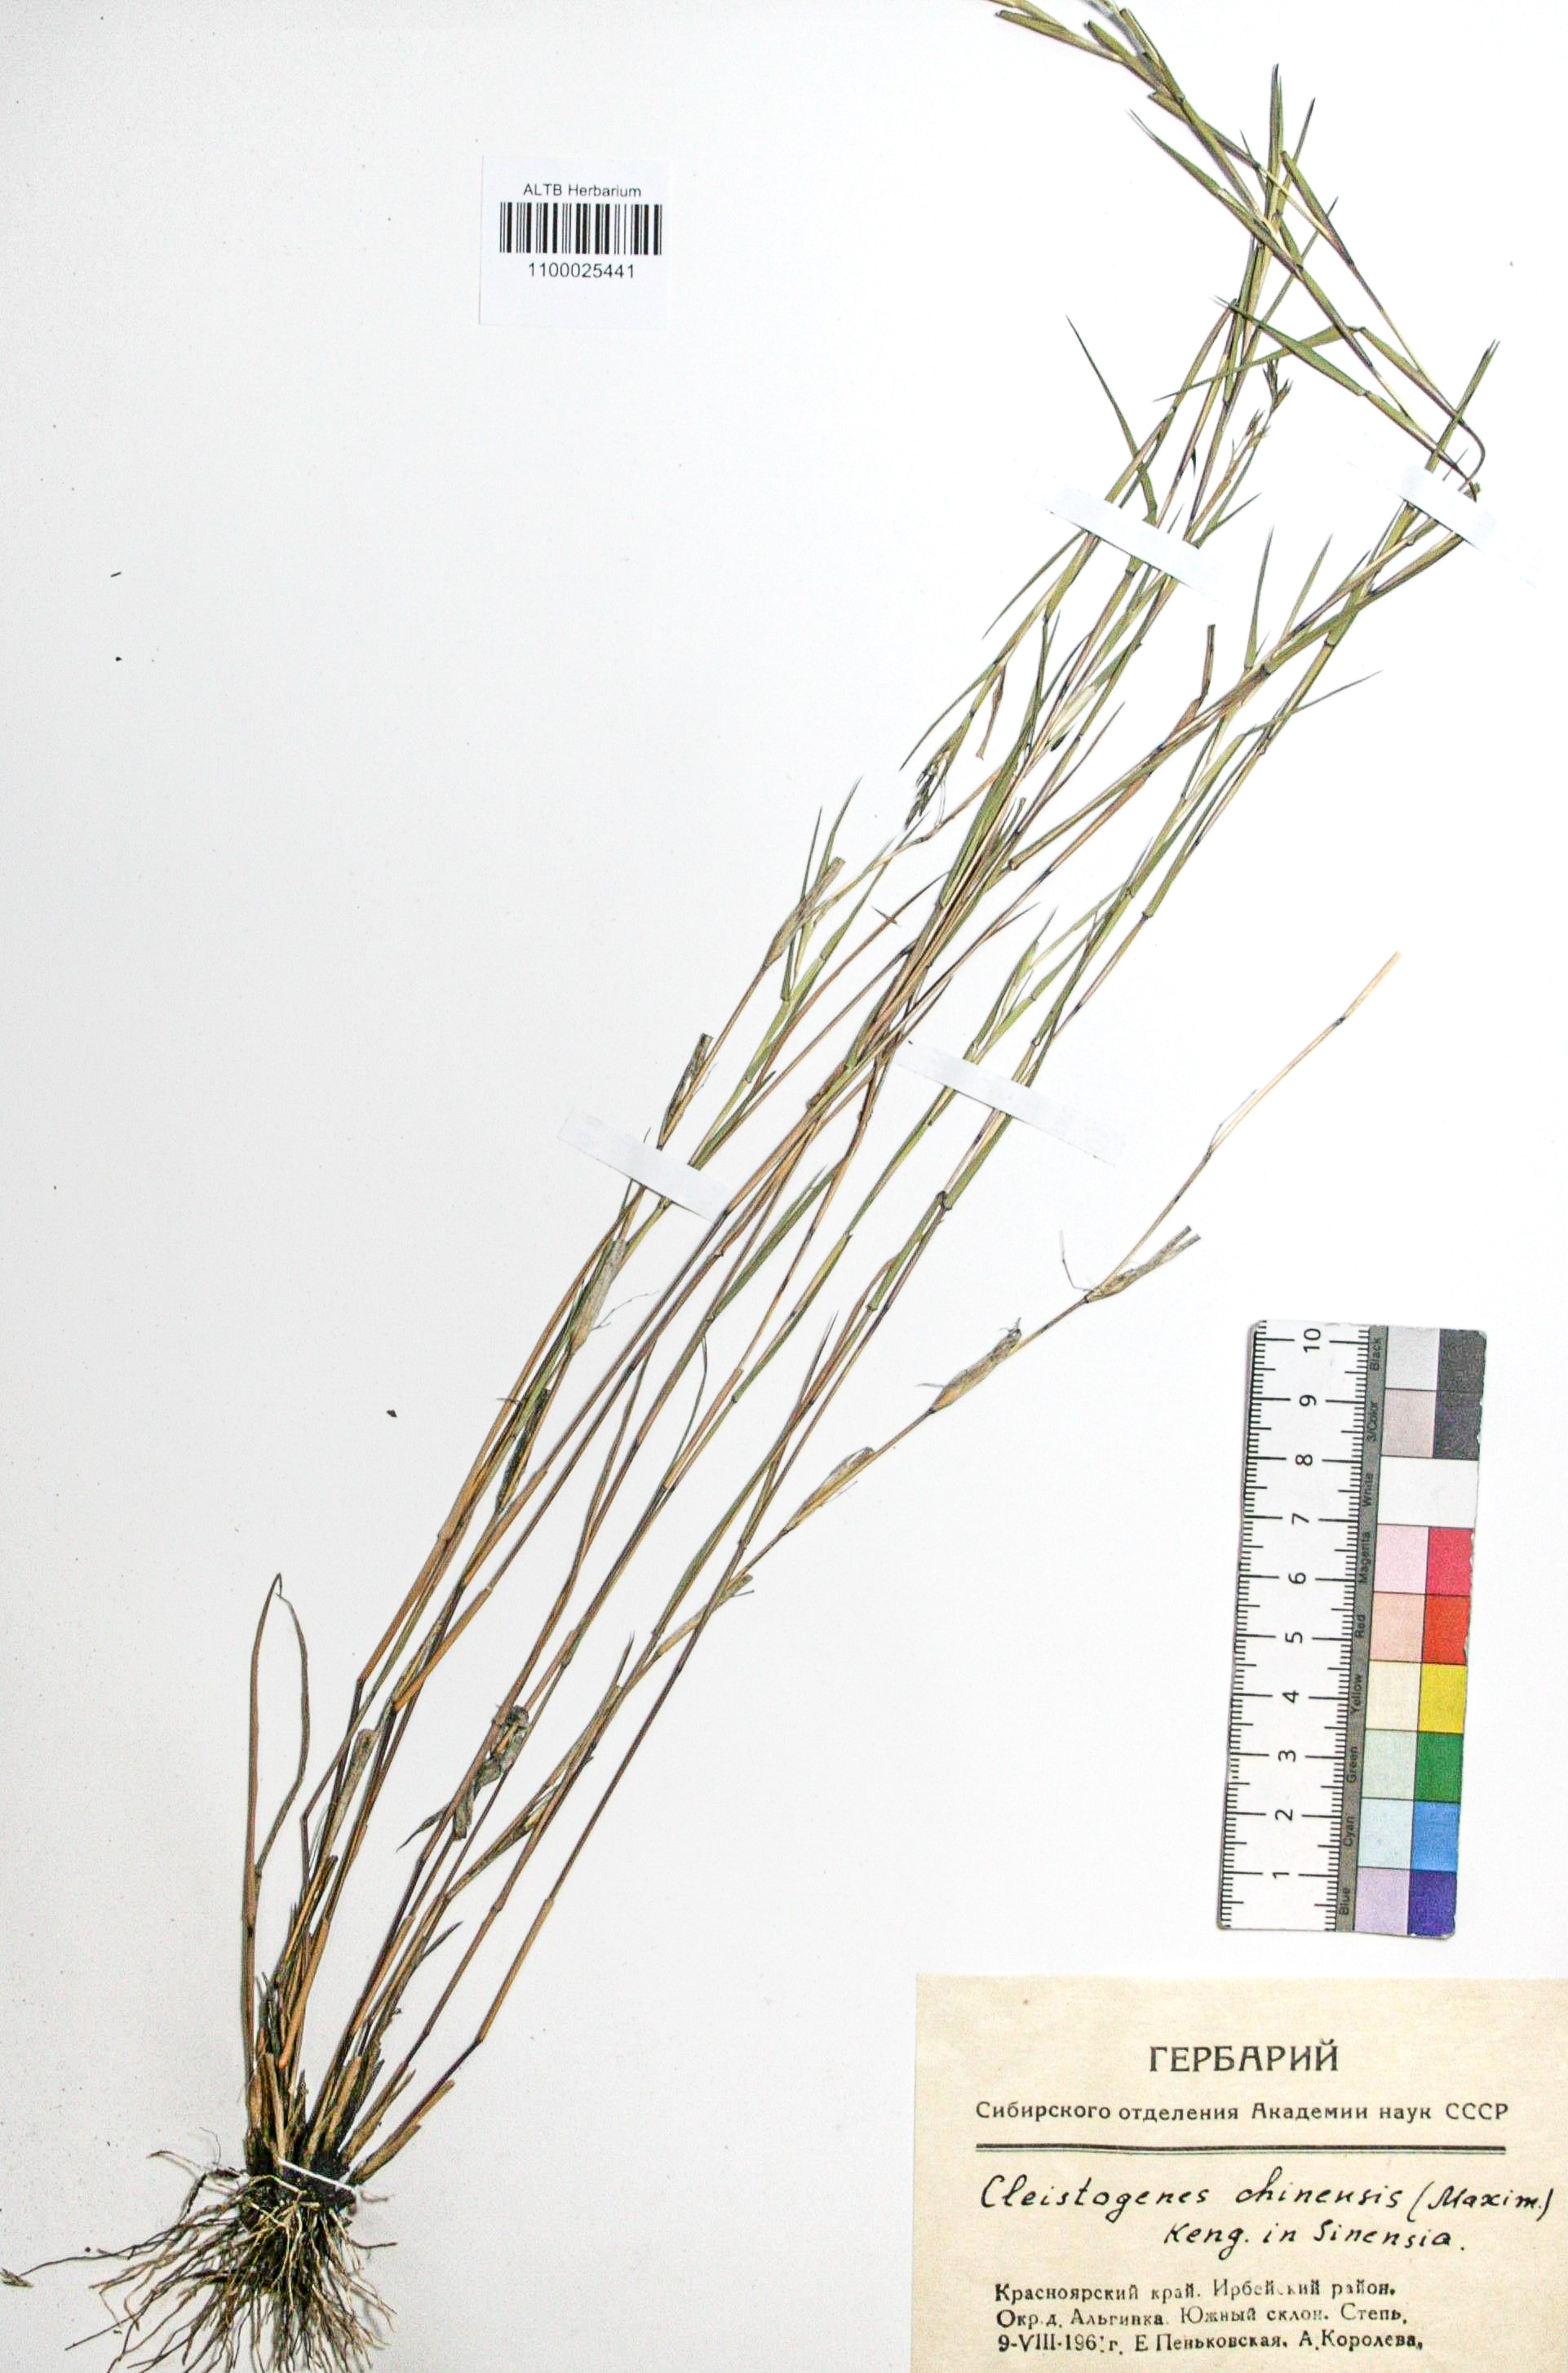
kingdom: Plantae
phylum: Tracheophyta
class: Liliopsida
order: Poales
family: Poaceae
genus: Cleistogenes
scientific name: Cleistogenes hackelii
